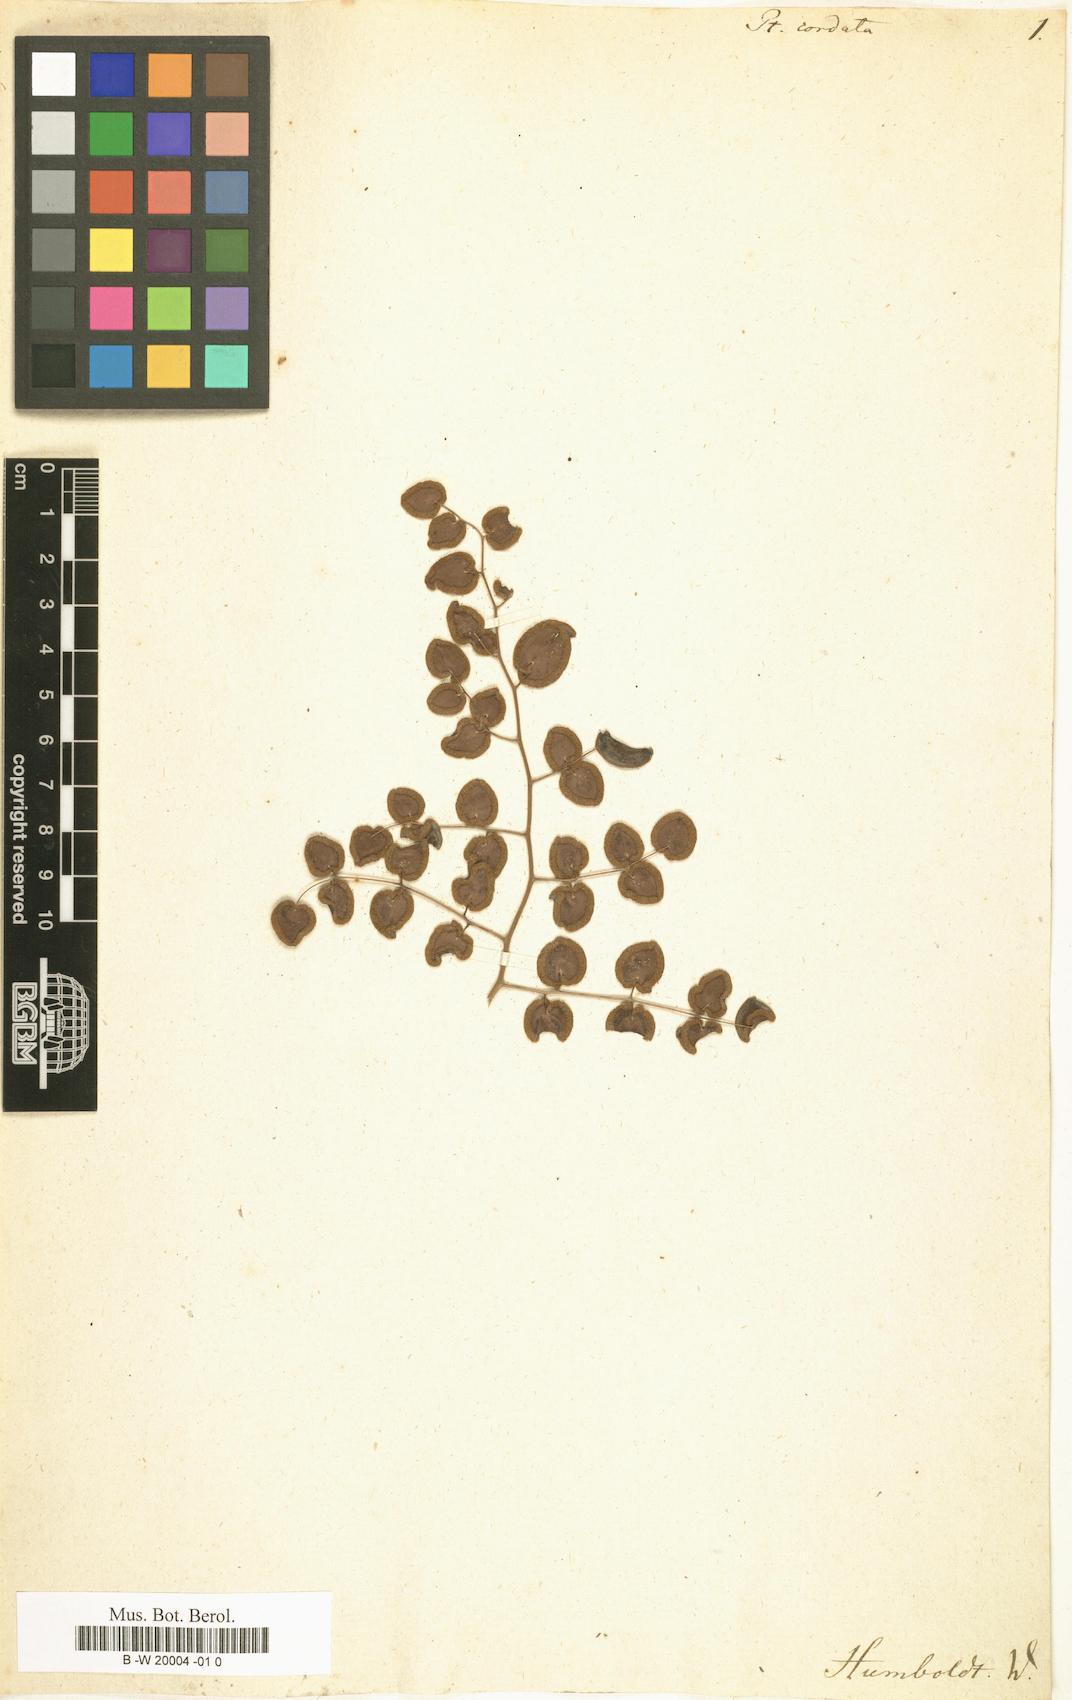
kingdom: Plantae
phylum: Tracheophyta
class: Polypodiopsida
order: Polypodiales
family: Pteridaceae
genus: Pellaea
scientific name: Pellaea
